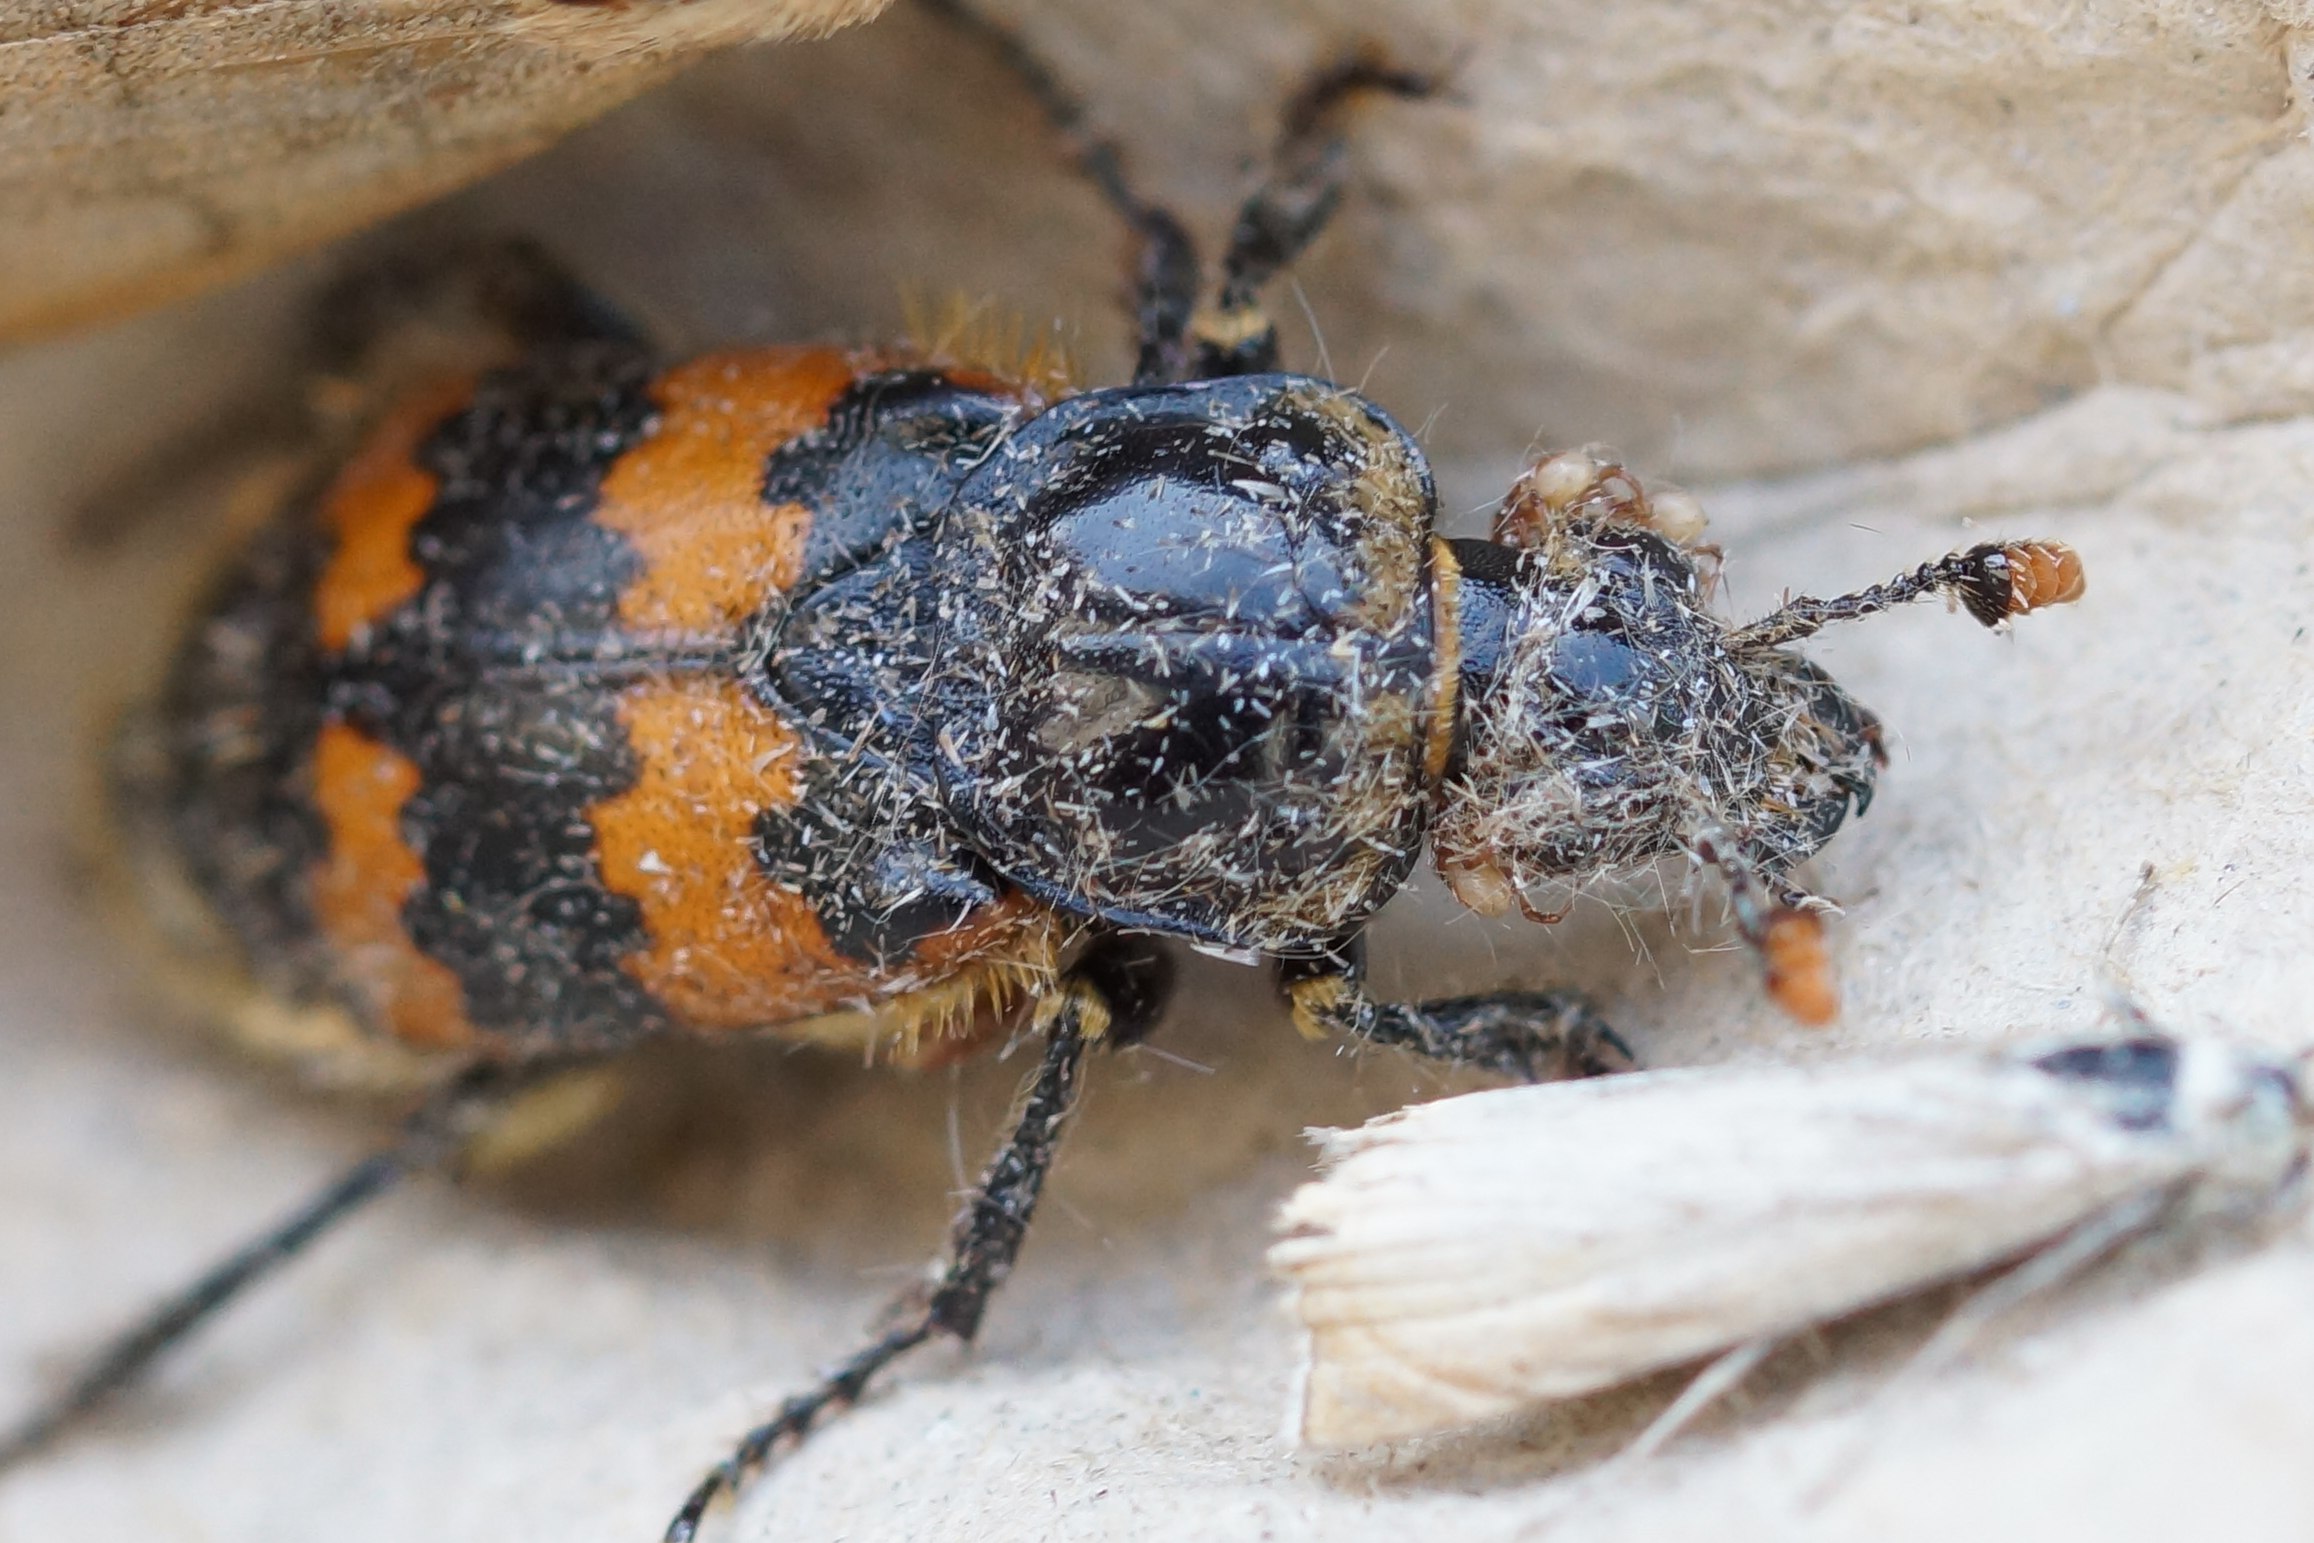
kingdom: Animalia
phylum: Arthropoda
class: Insecta
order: Coleoptera
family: Staphylinidae
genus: Nicrophorus
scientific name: Nicrophorus vespillo
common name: Krumbenet ådselgraver
